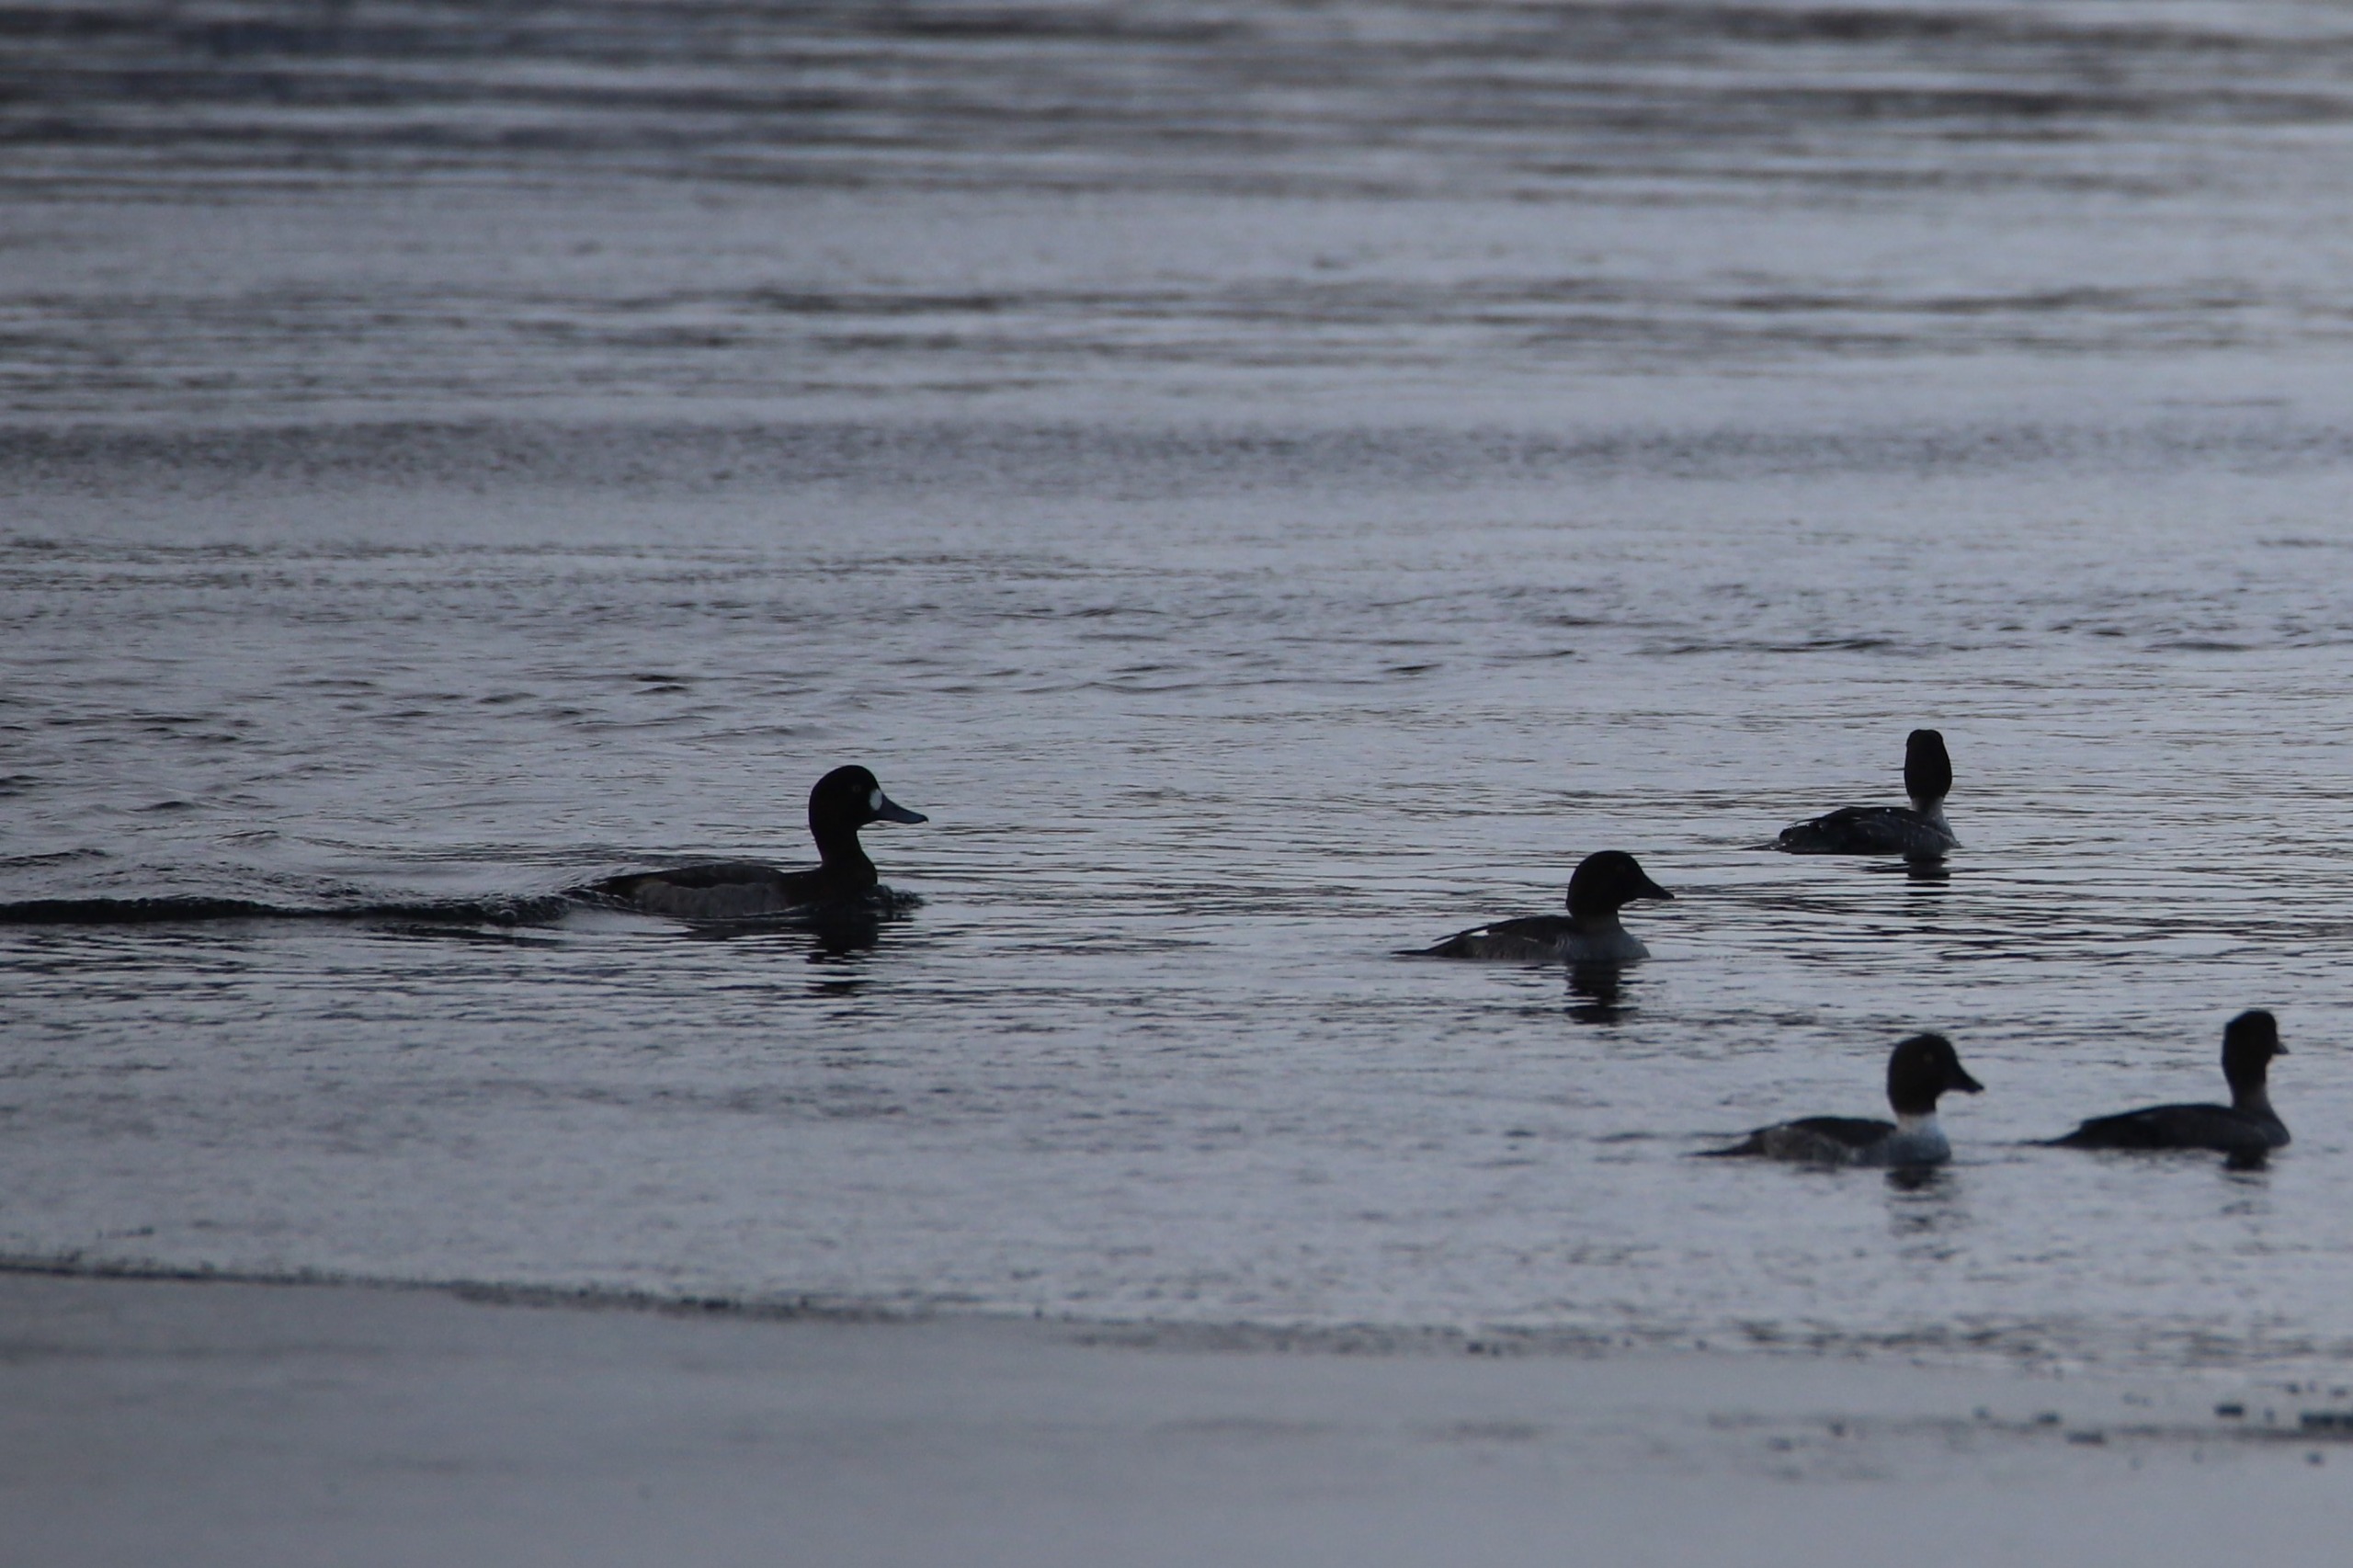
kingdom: Animalia
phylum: Chordata
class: Aves
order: Anseriformes
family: Anatidae
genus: Aythya
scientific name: Aythya marila
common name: Bjergand
